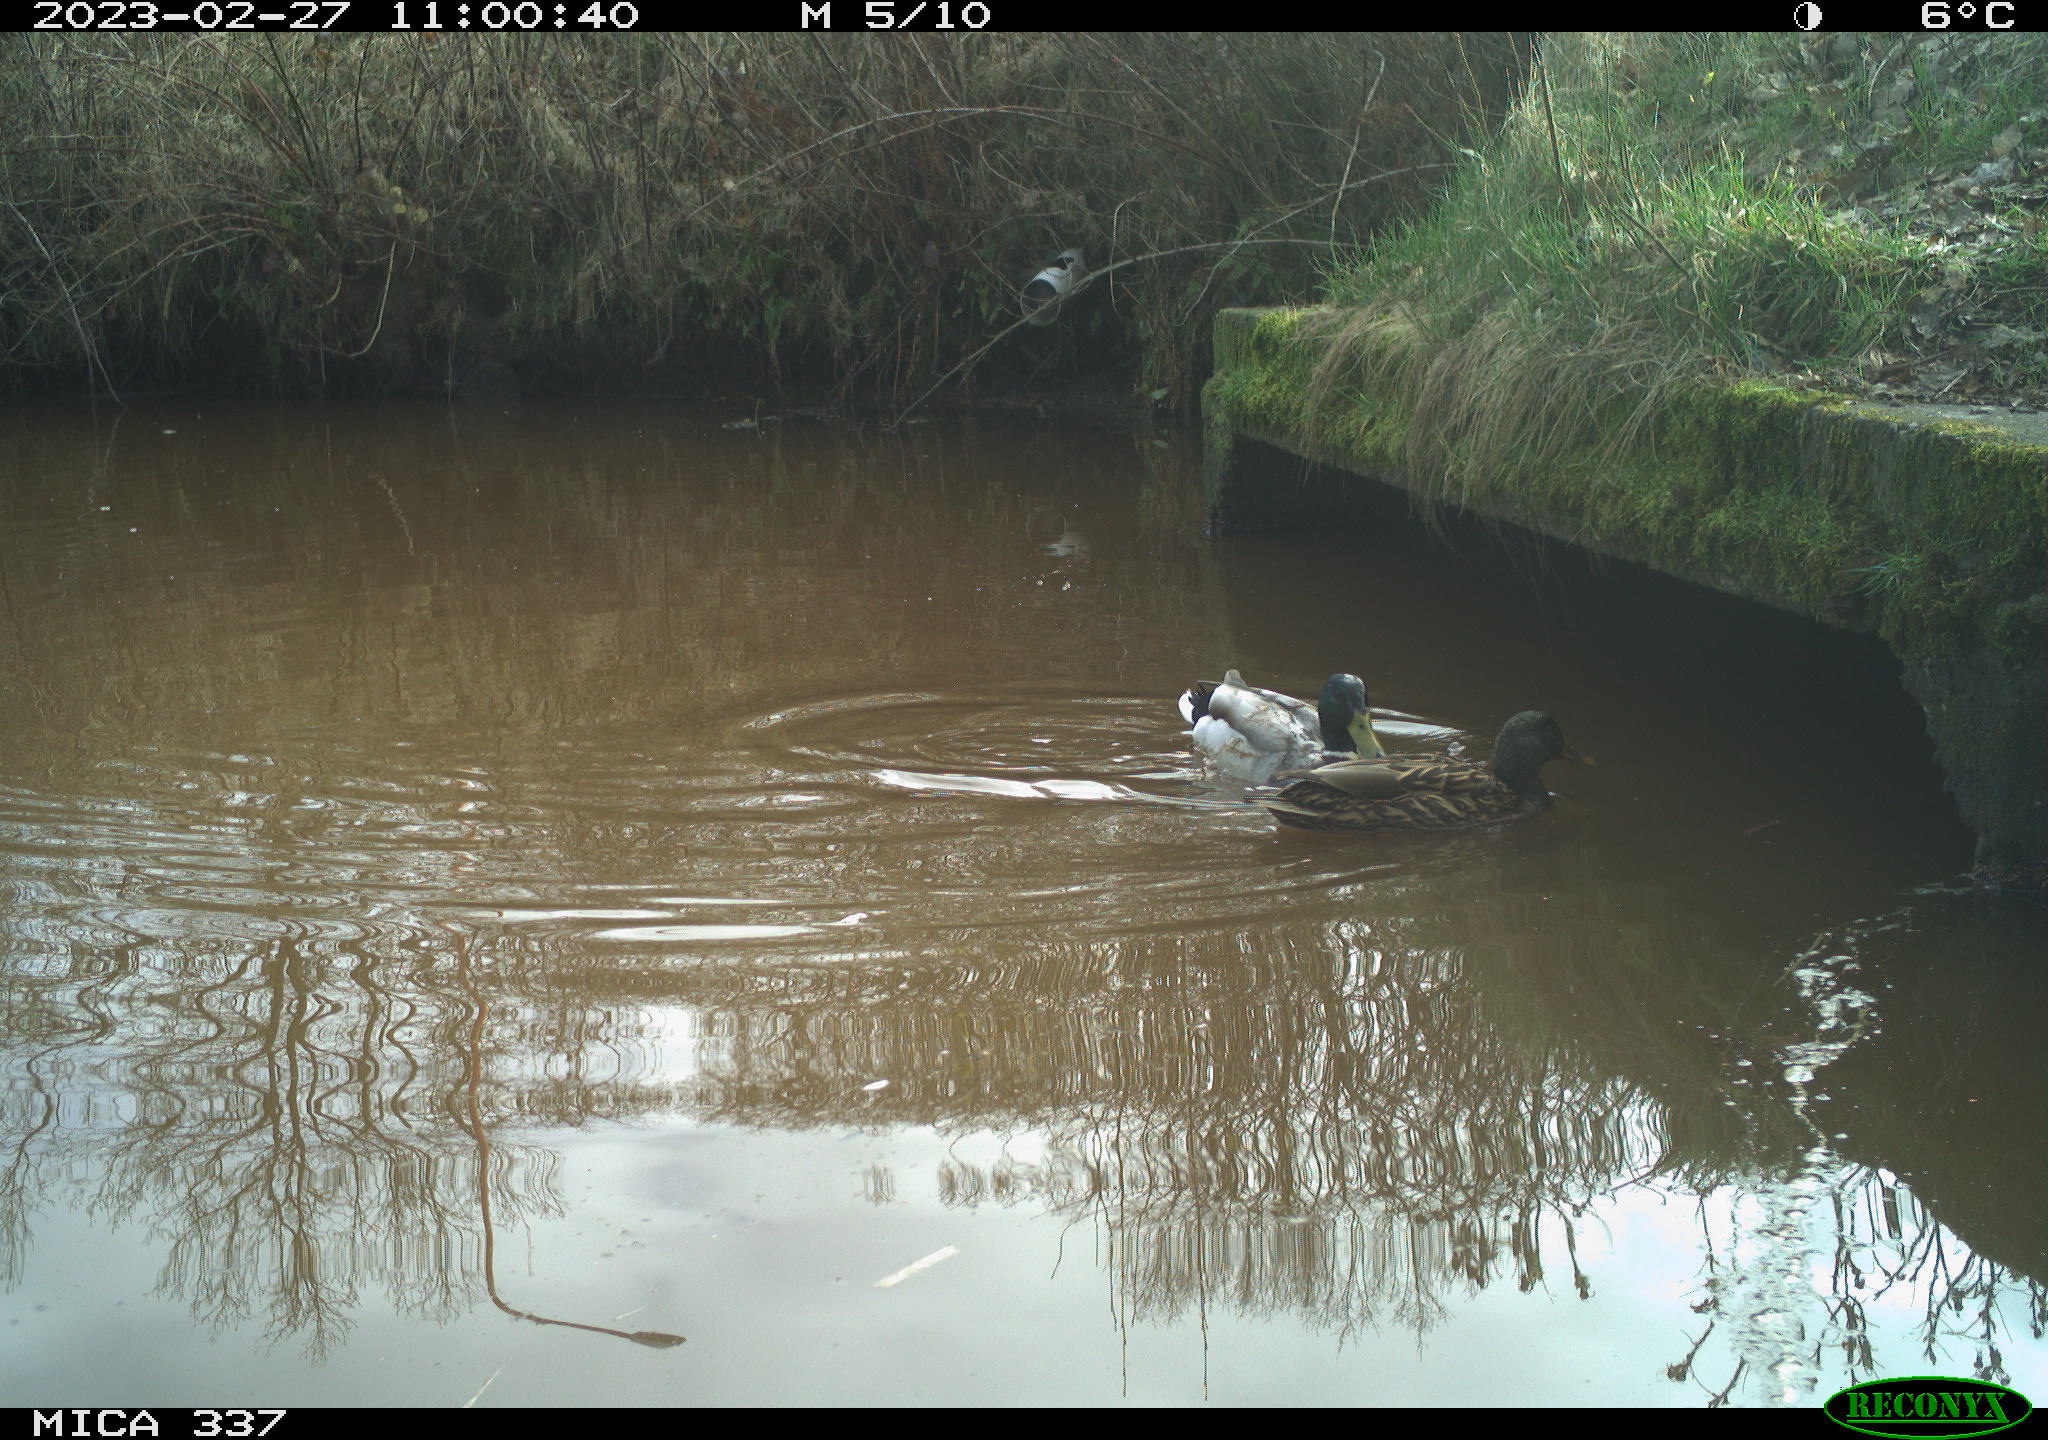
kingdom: Animalia
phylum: Chordata
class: Aves
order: Anseriformes
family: Anatidae
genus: Anas
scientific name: Anas
